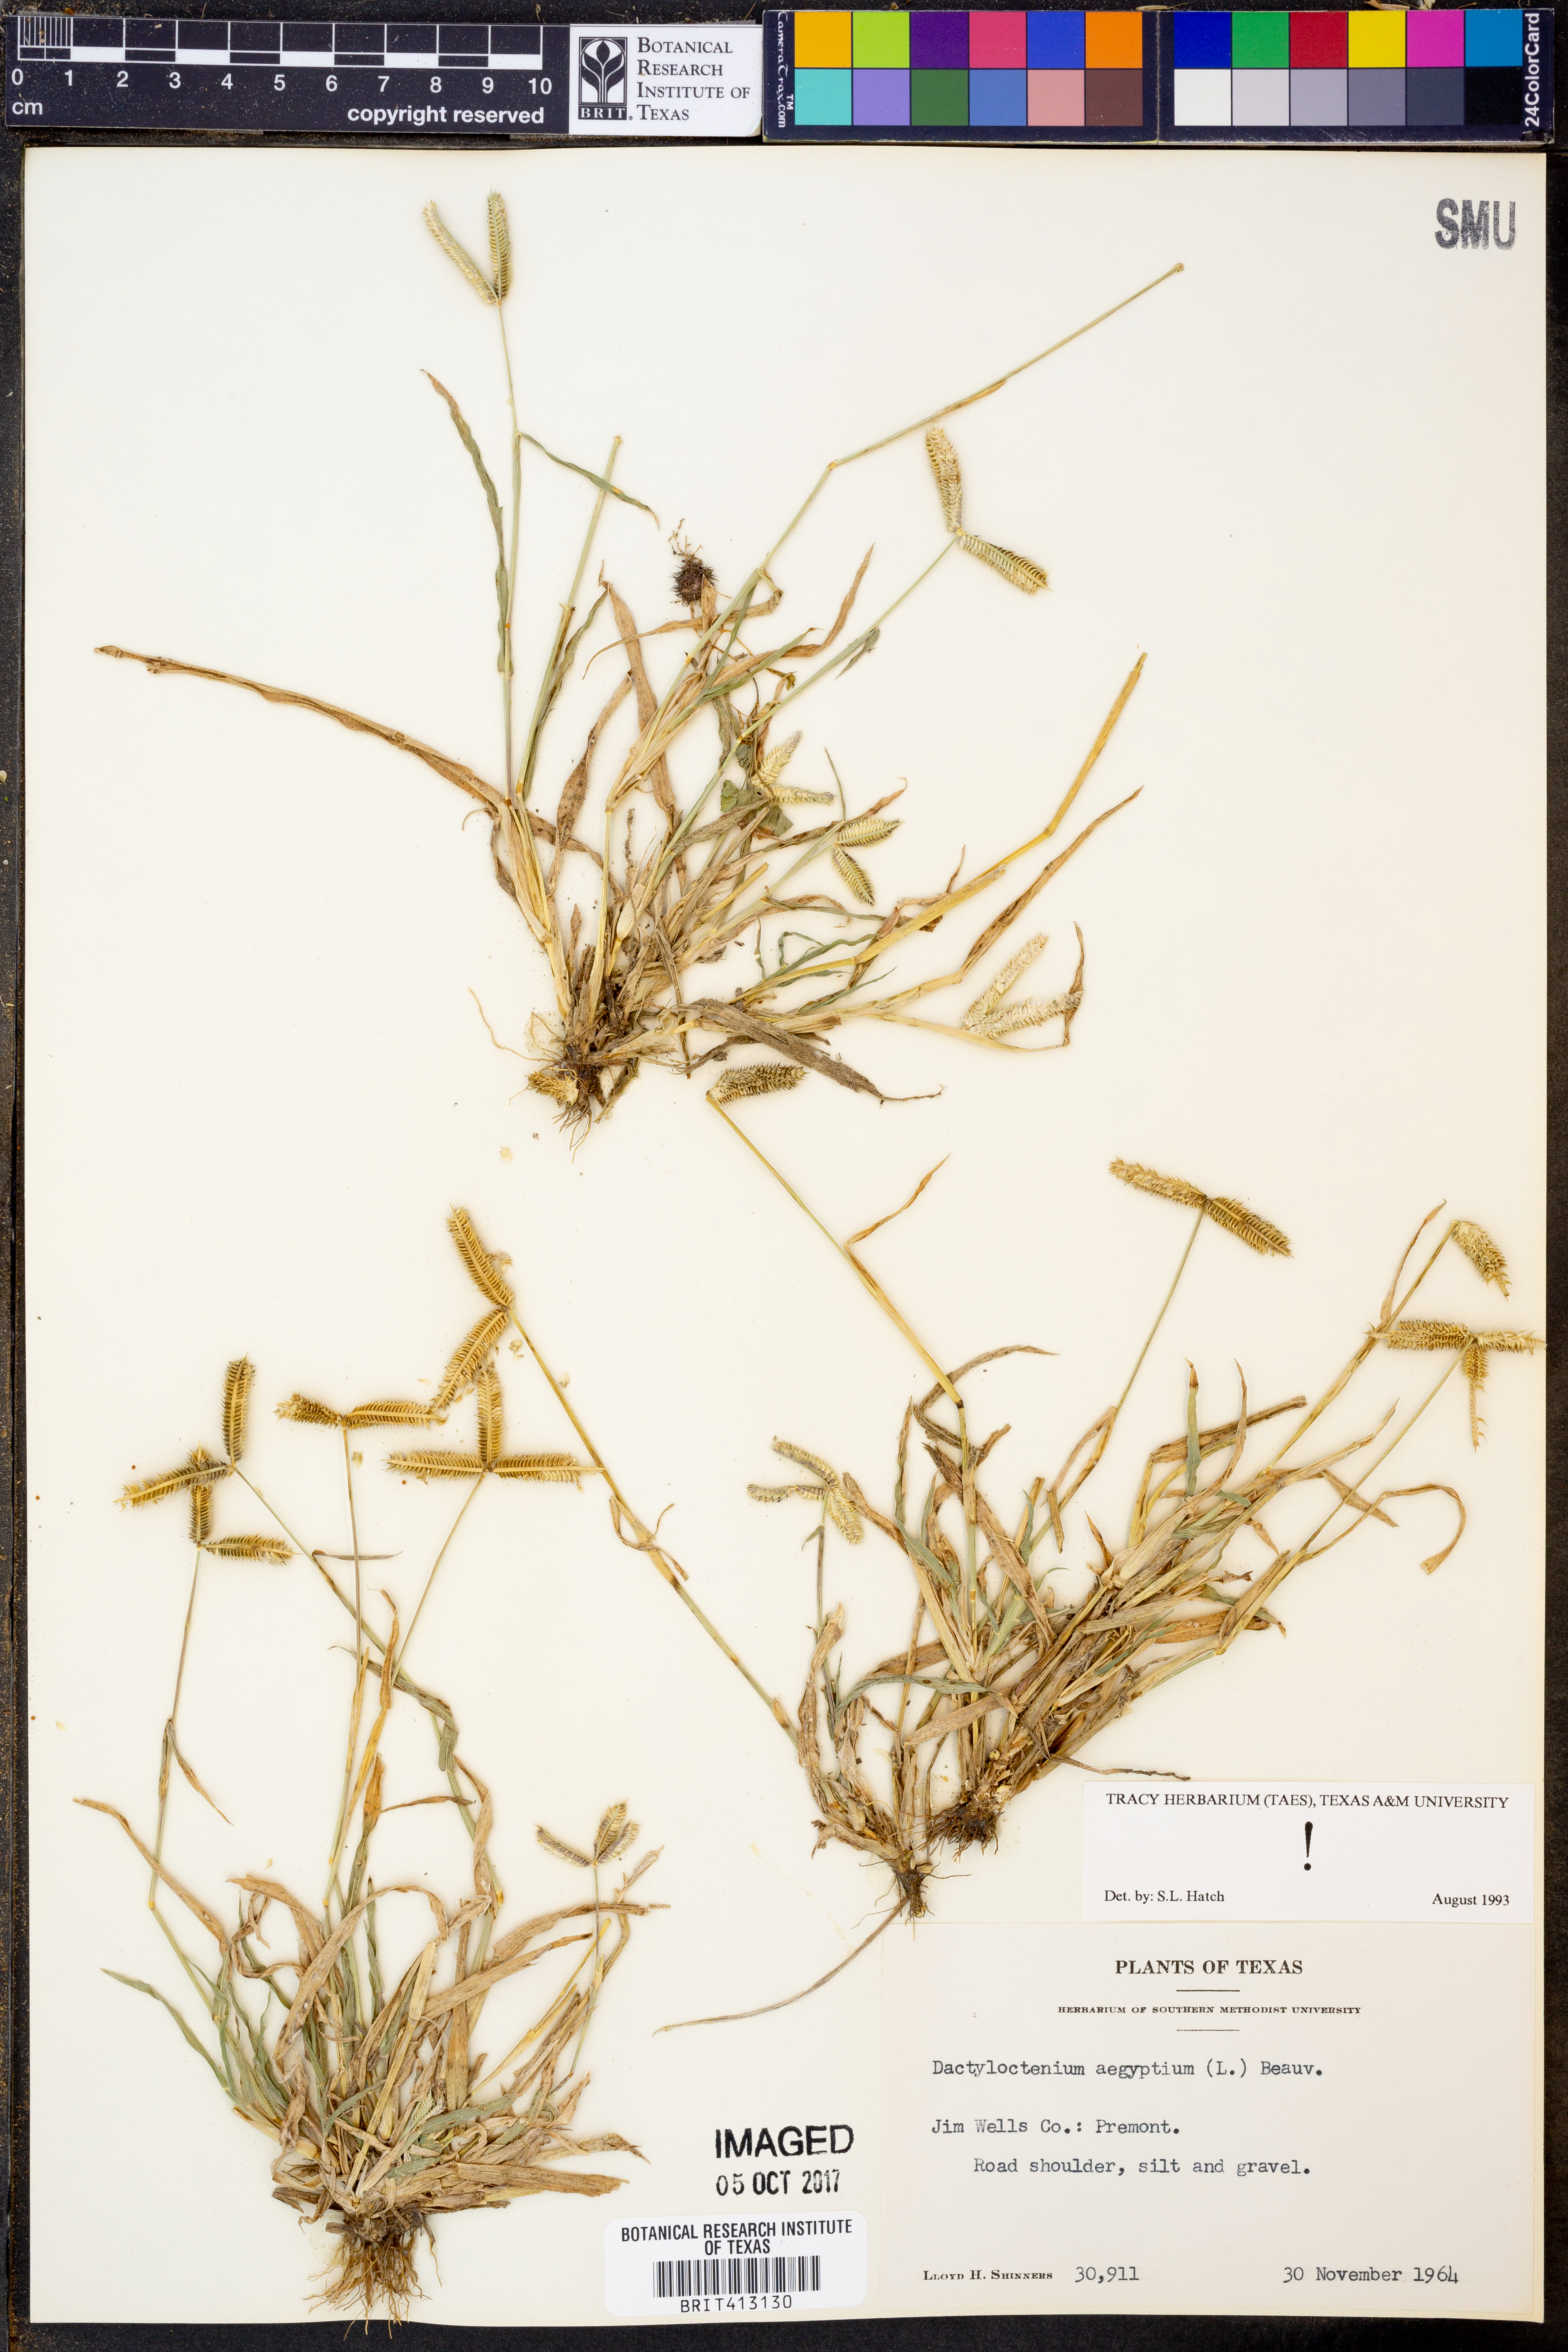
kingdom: Plantae
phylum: Tracheophyta
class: Liliopsida
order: Poales
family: Poaceae
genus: Dactyloctenium
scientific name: Dactyloctenium aegyptium
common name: Egyptian grass
